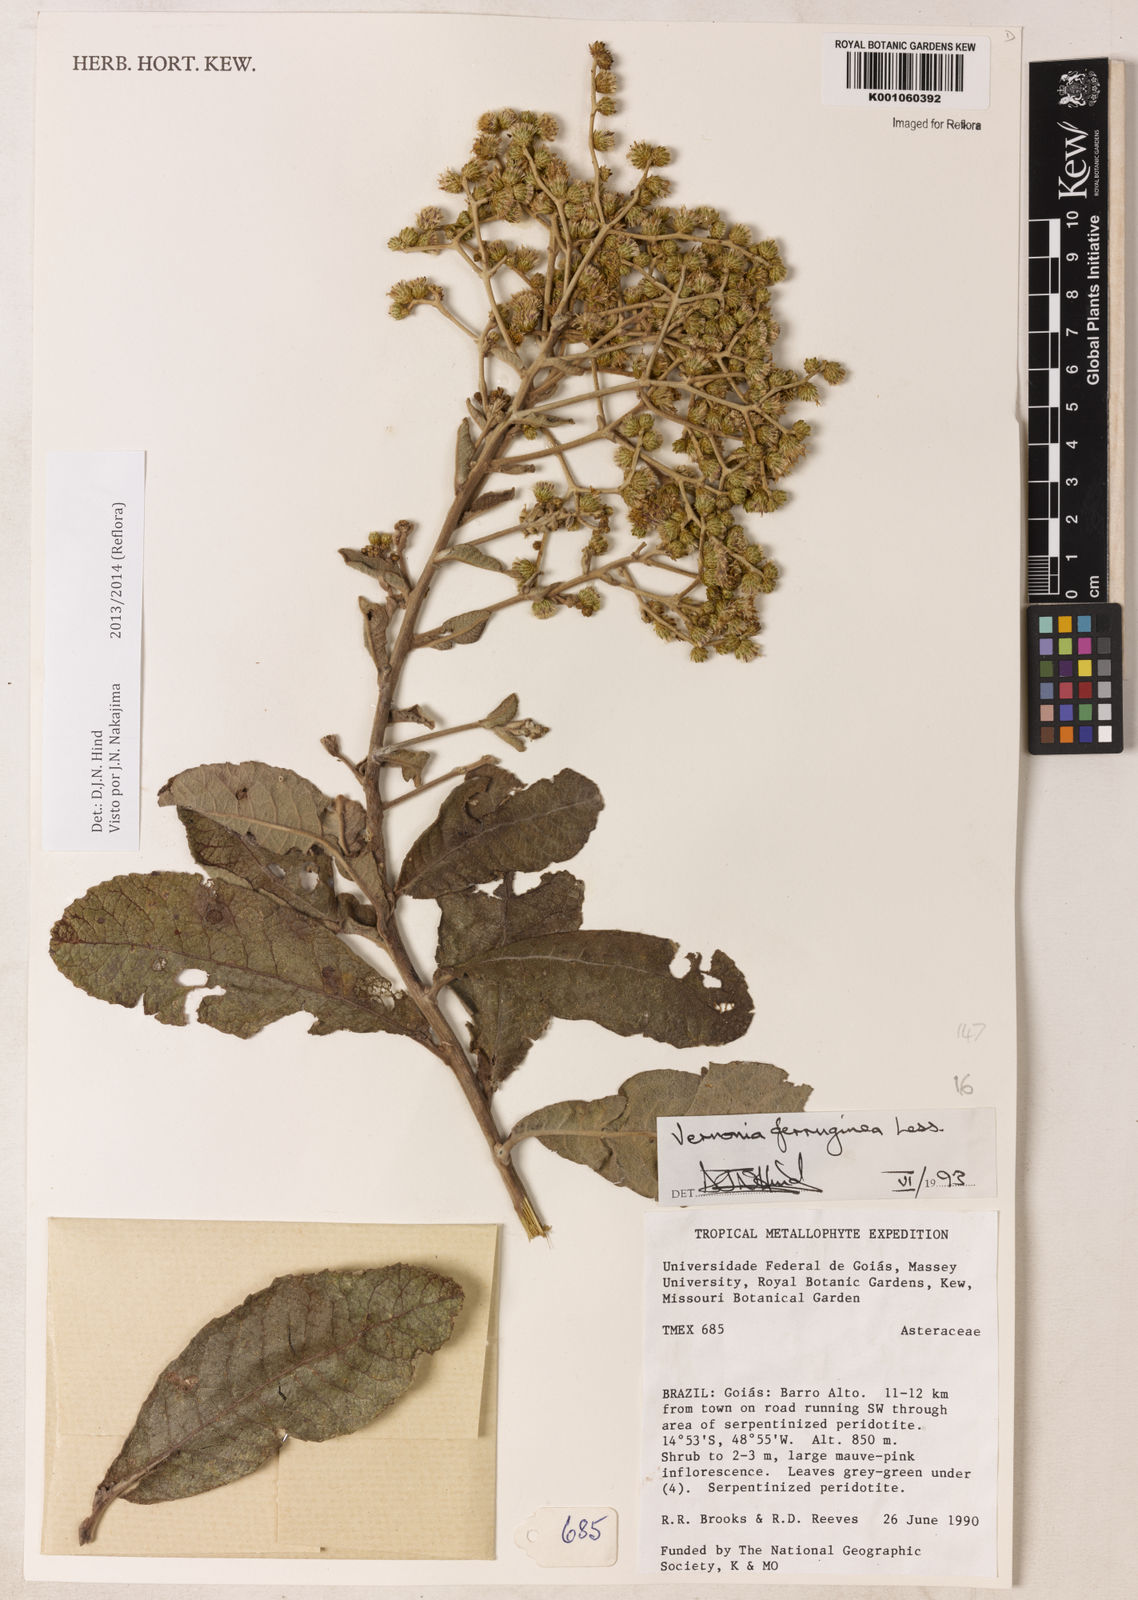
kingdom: Plantae
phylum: Tracheophyta
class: Magnoliopsida
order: Asterales
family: Asteraceae
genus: Vernonanthura
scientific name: Vernonanthura ferruginea
